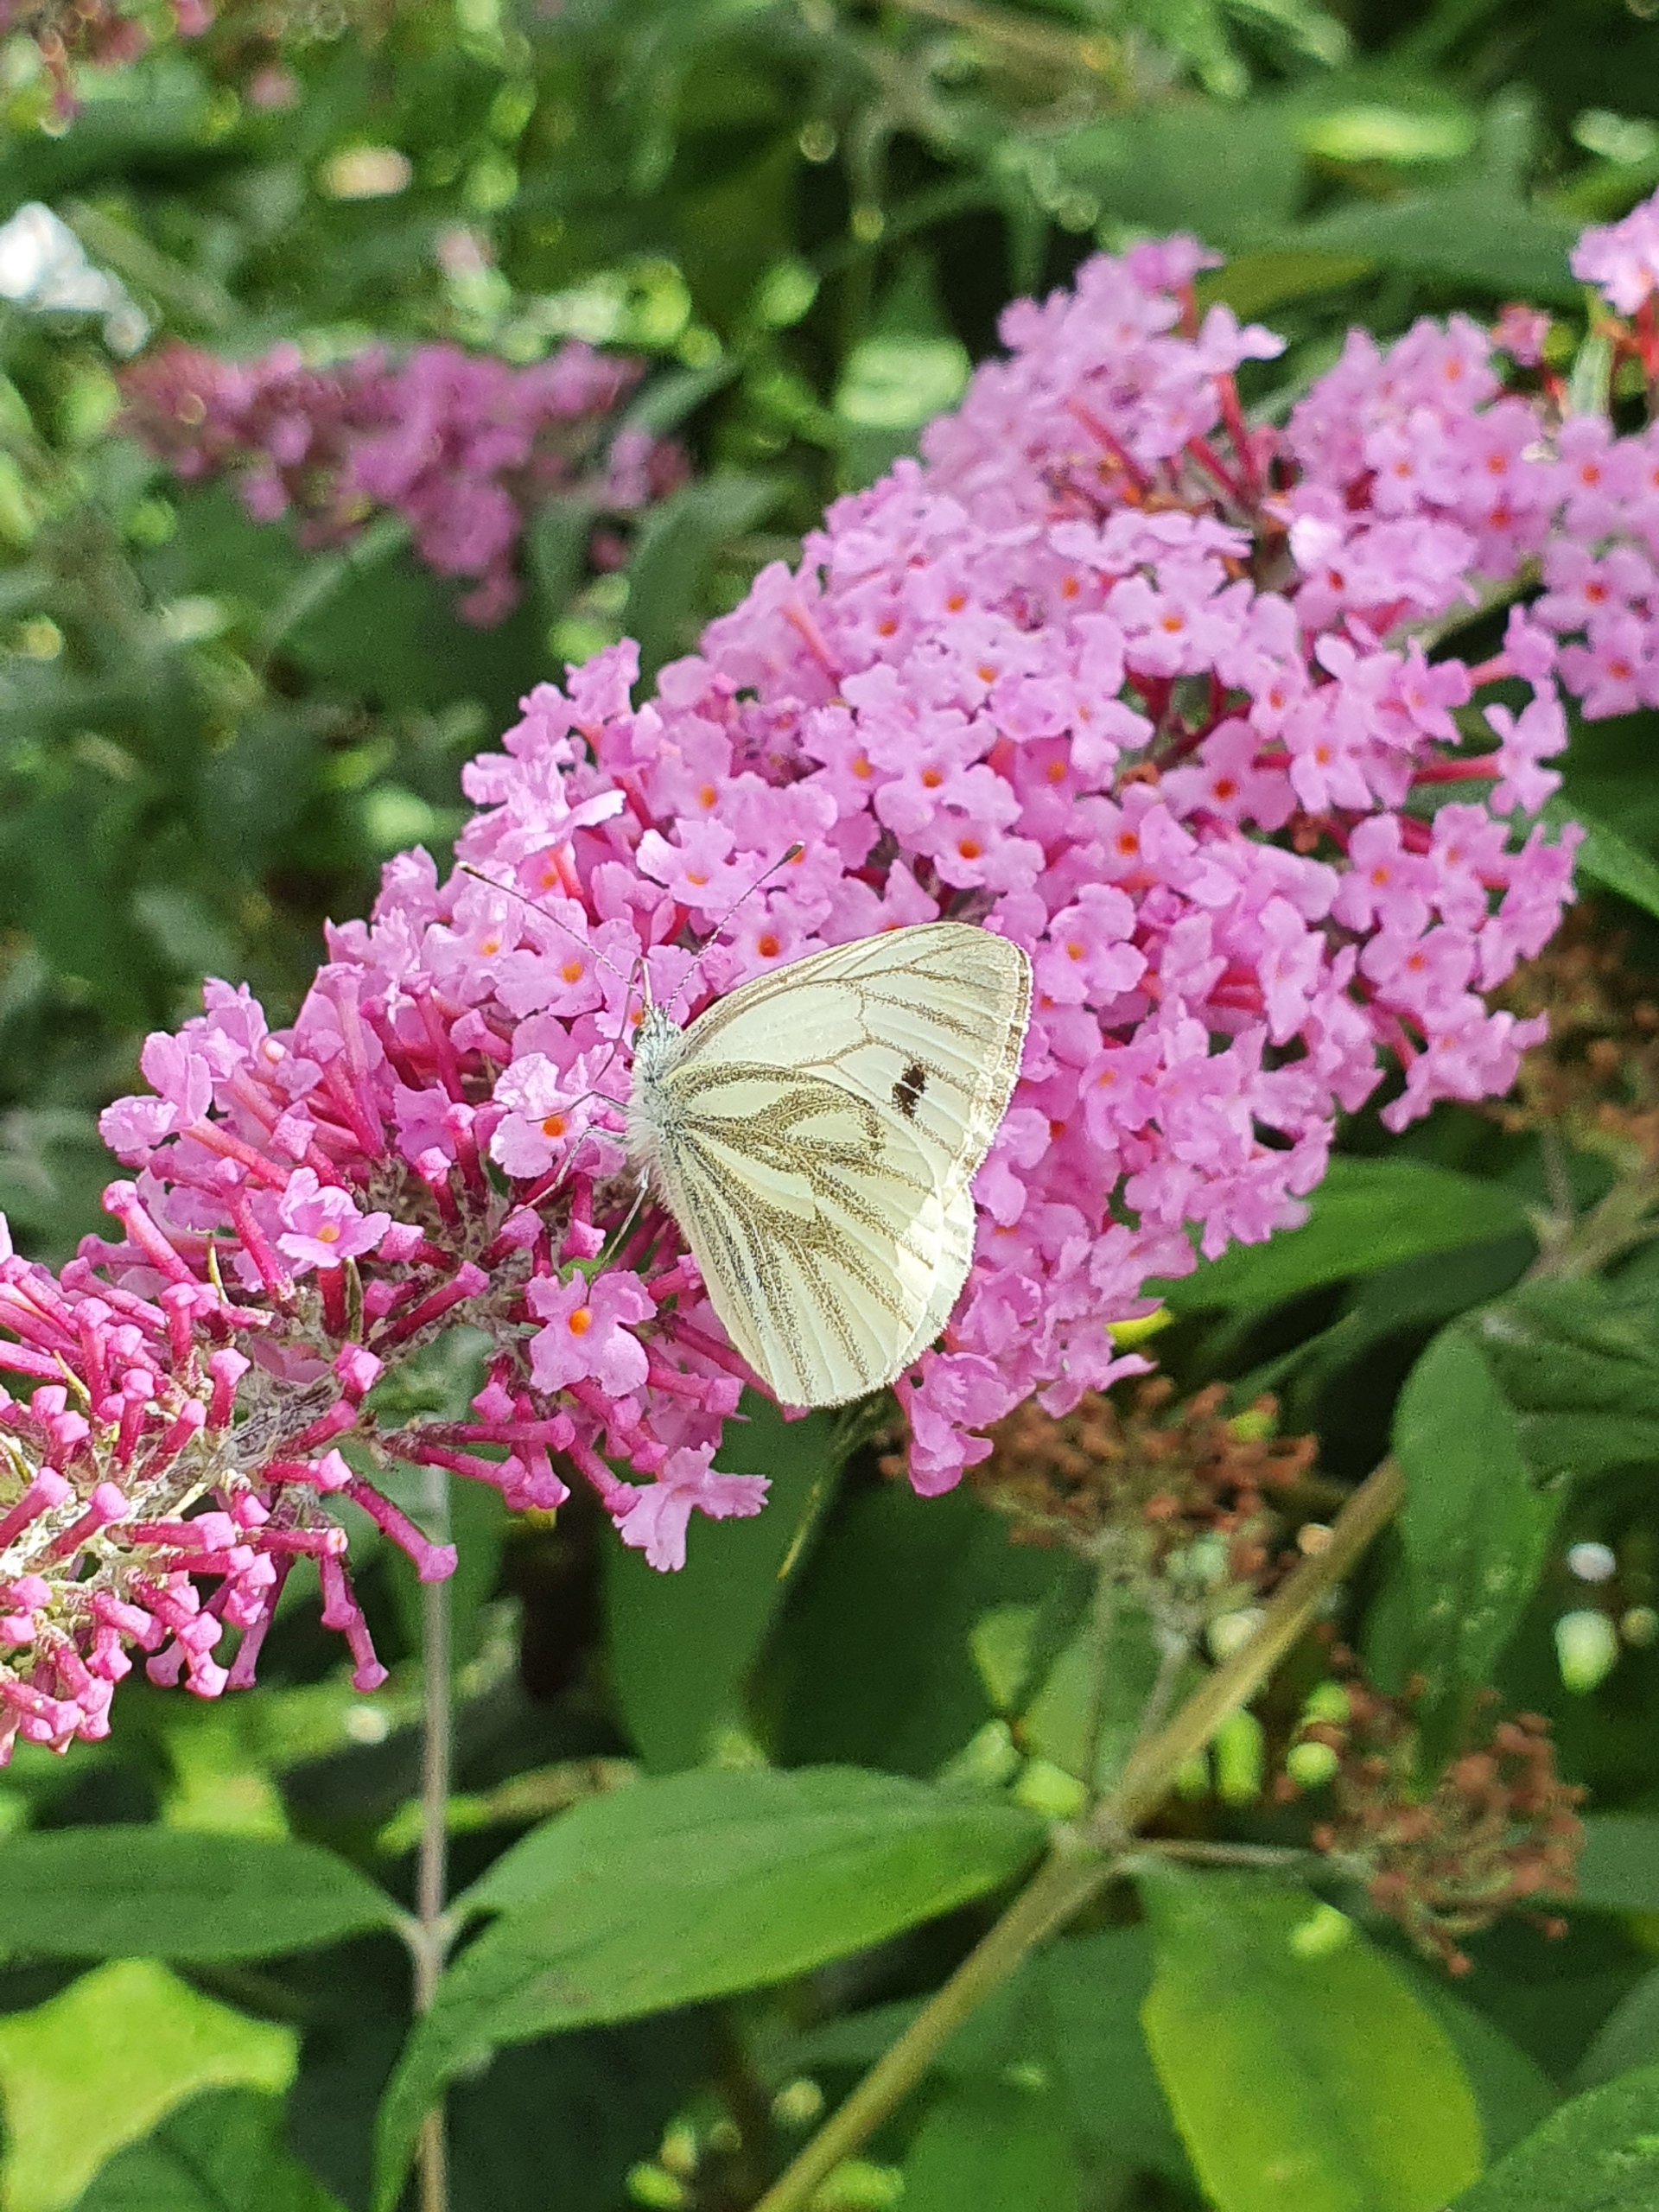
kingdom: Animalia
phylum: Arthropoda
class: Insecta
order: Lepidoptera
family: Pieridae
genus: Pieris
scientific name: Pieris napi
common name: Grønåret kålsommerfugl
